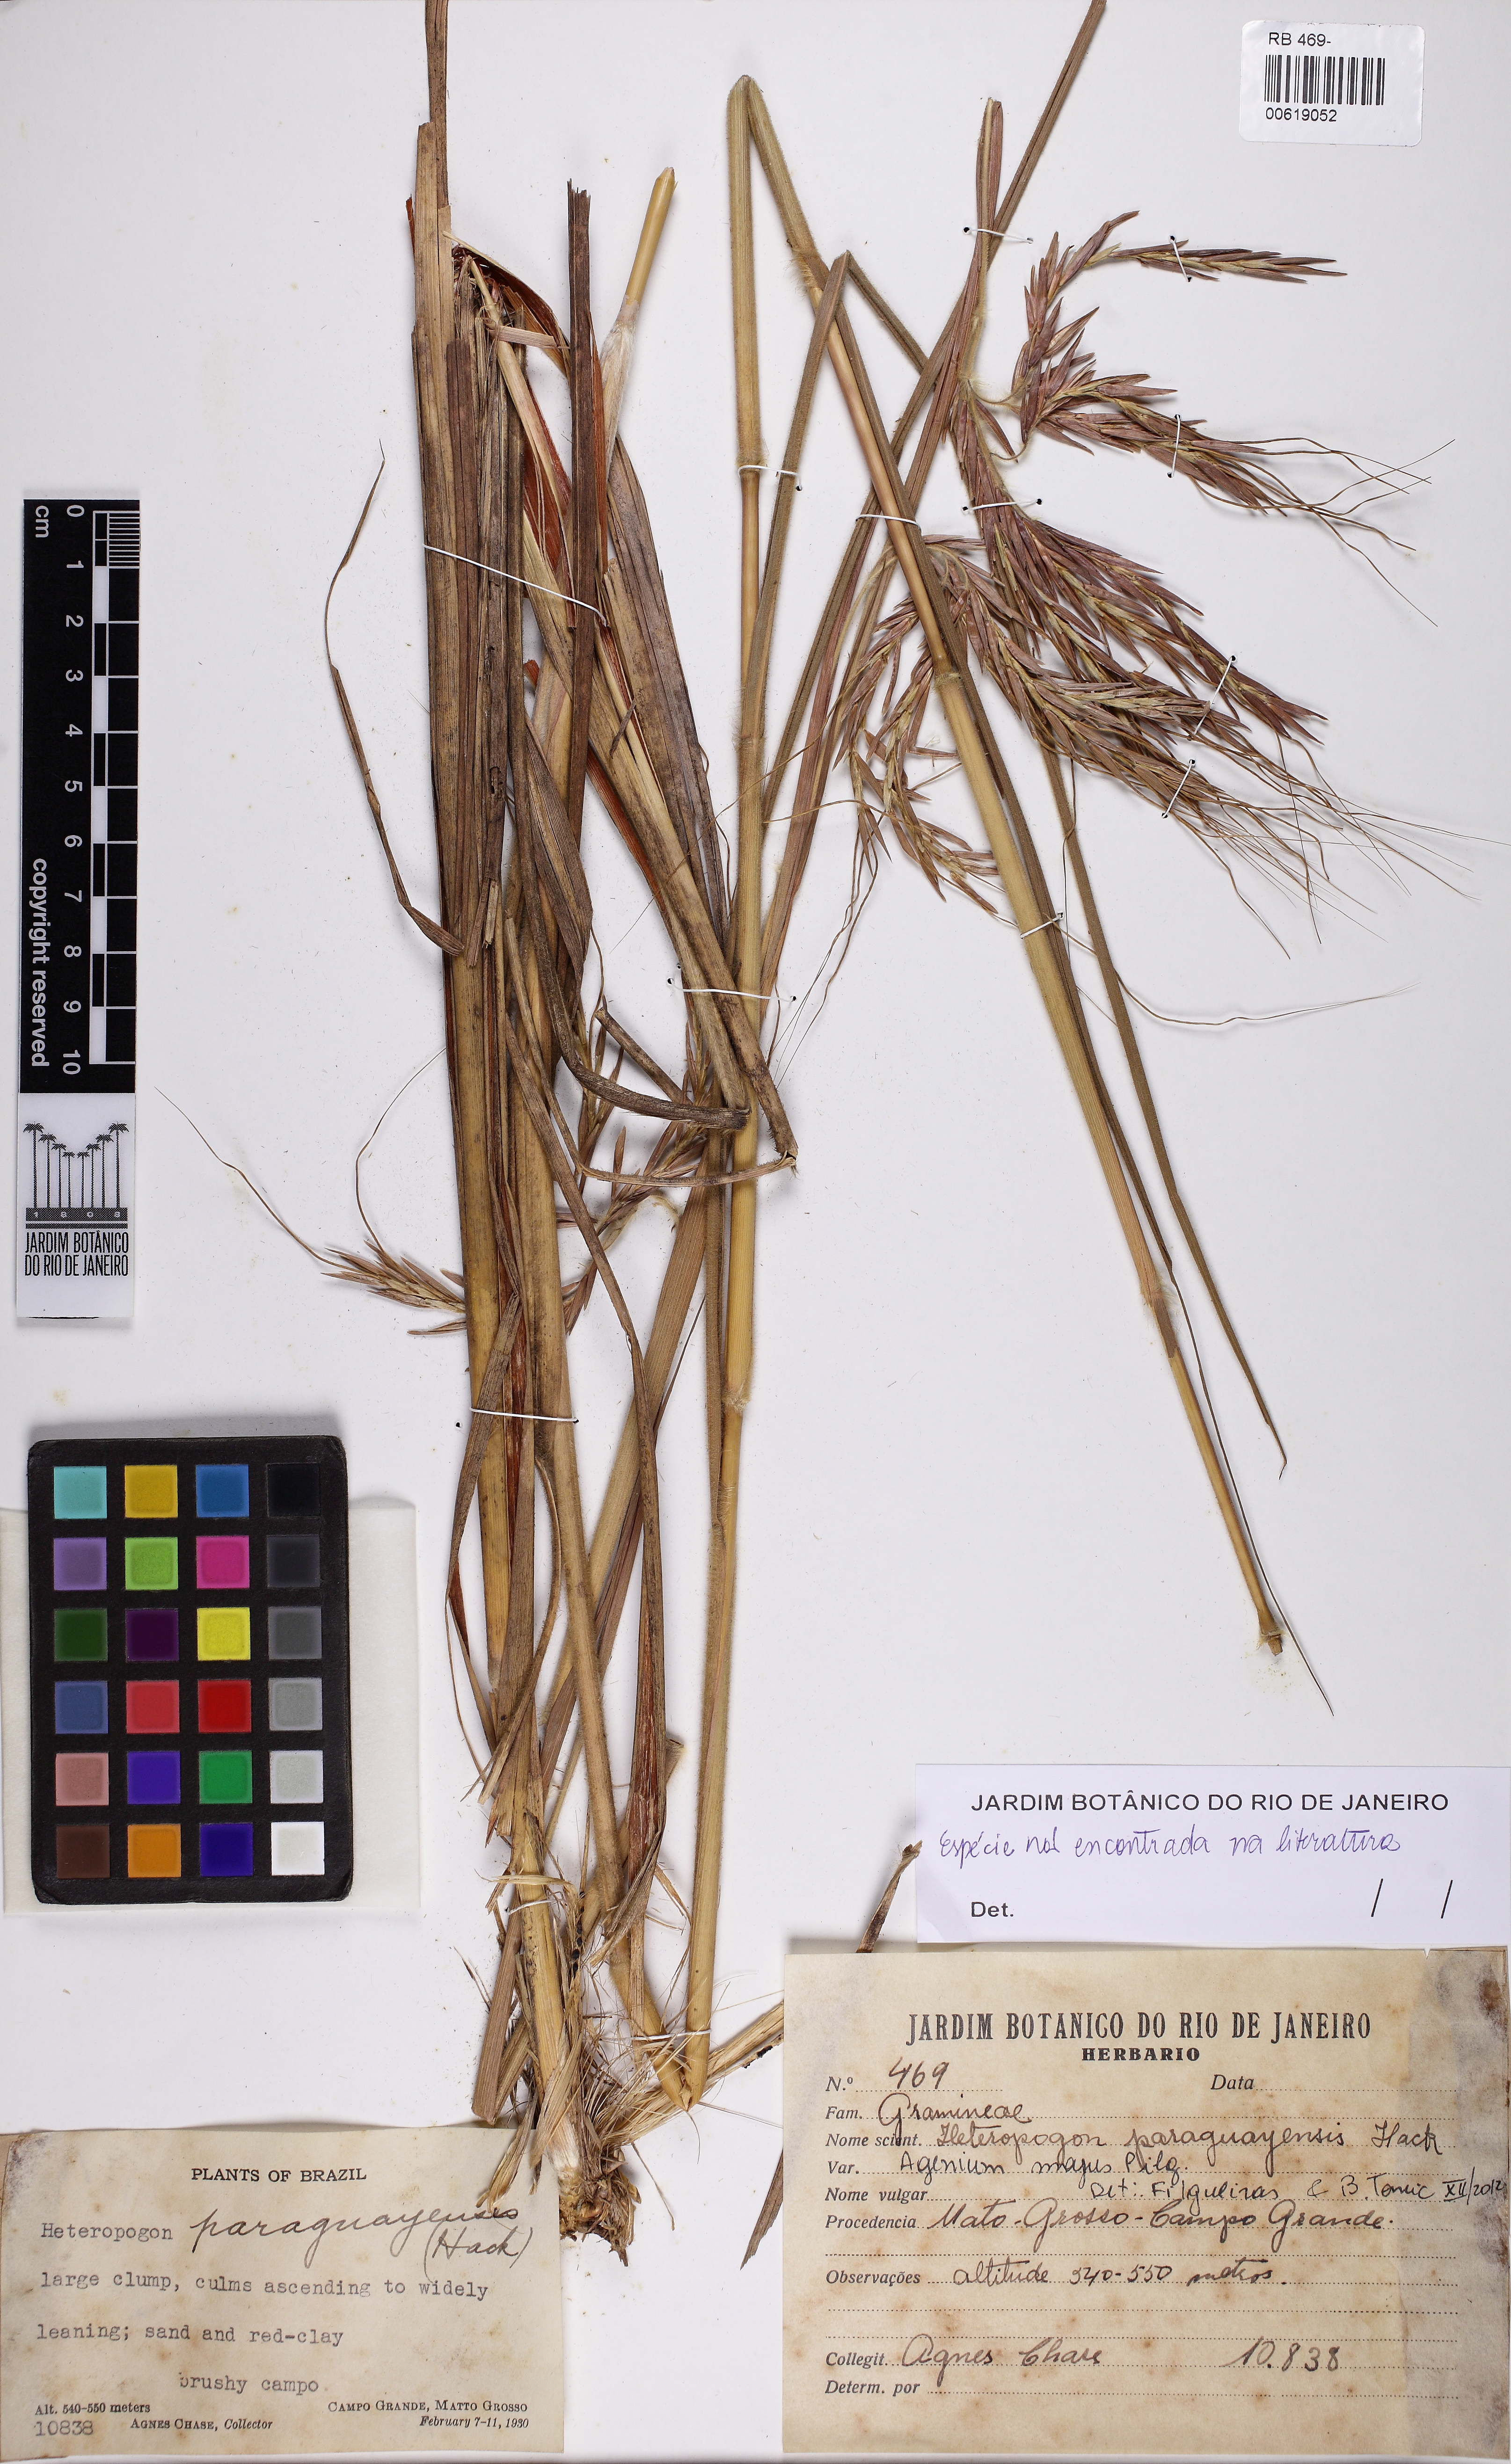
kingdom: Plantae
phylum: Tracheophyta
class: Liliopsida
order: Poales
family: Poaceae
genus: Agenium
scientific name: Agenium majus
